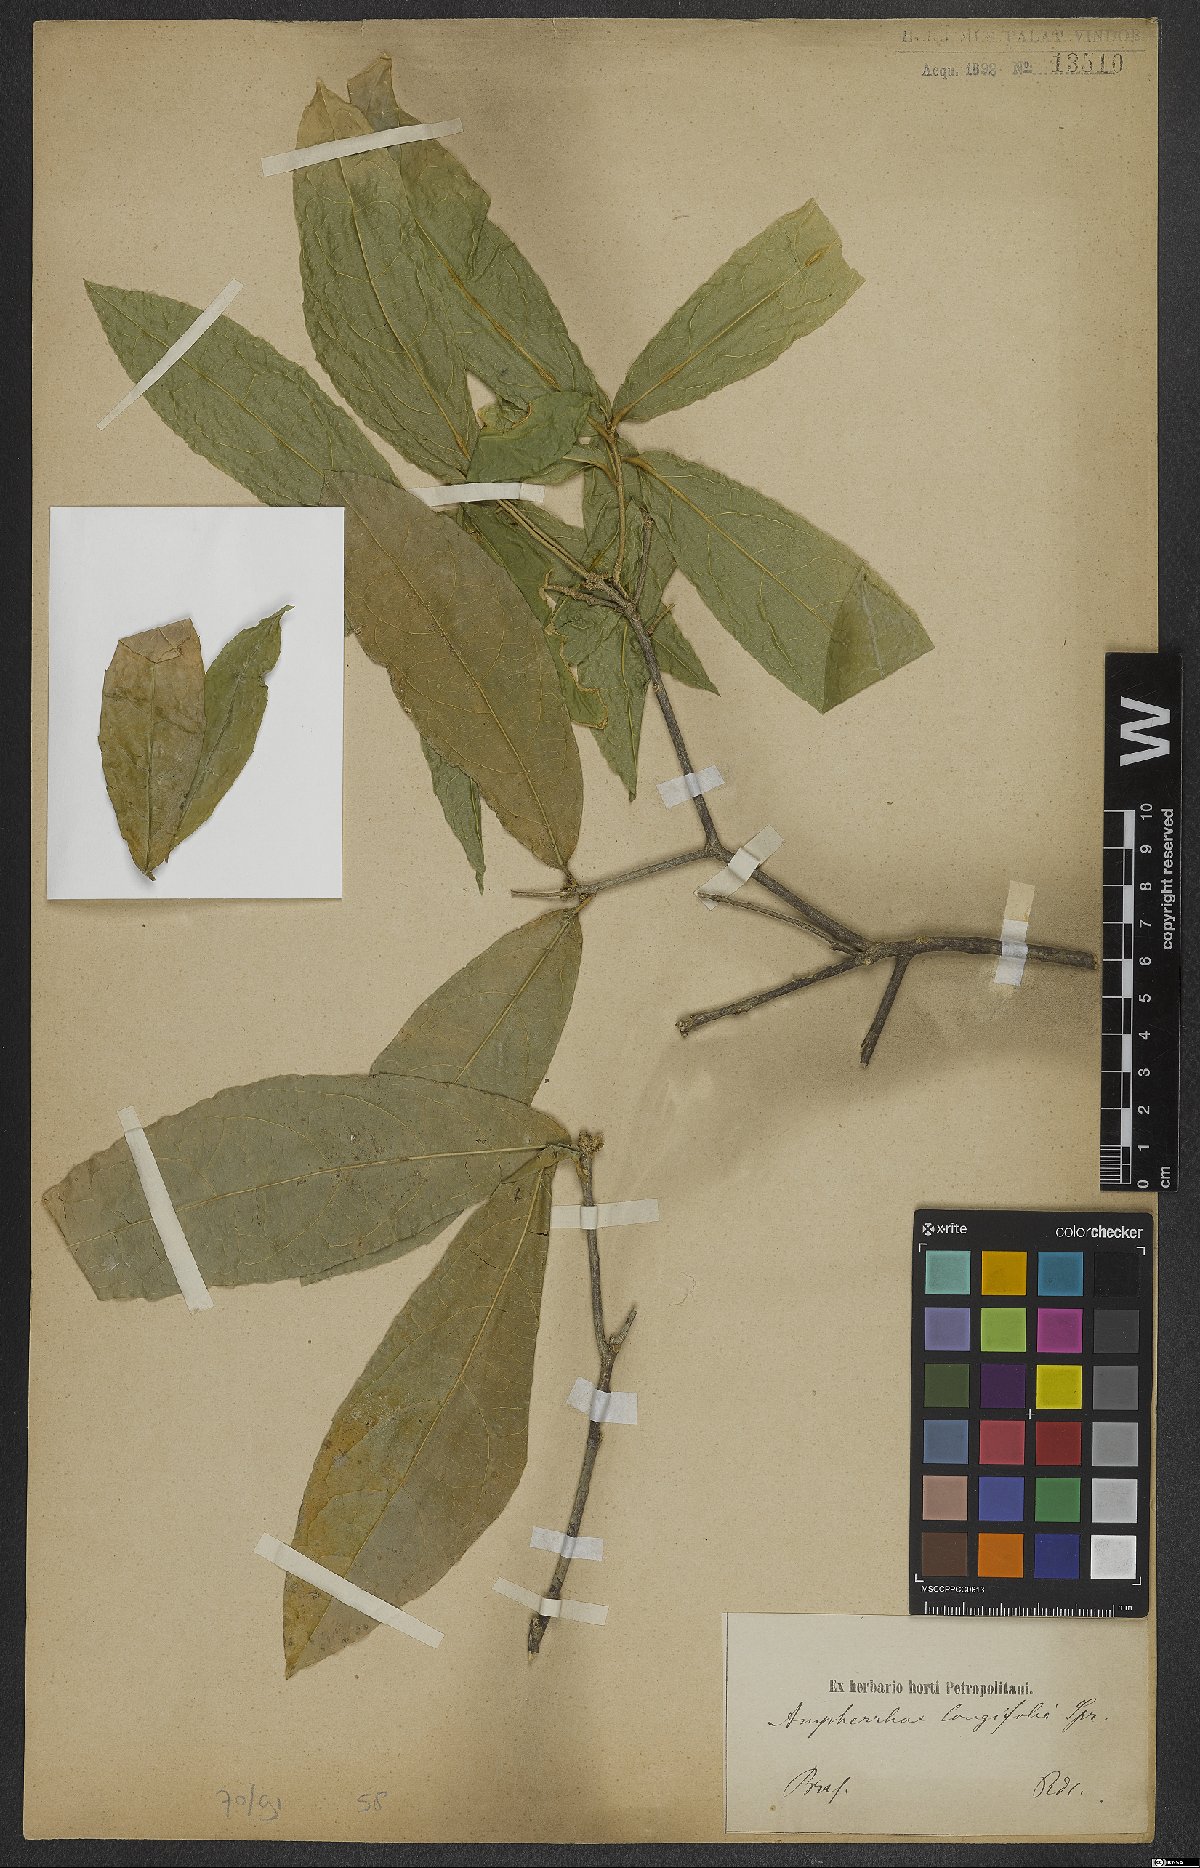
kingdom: Plantae
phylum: Tracheophyta
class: Magnoliopsida
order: Malpighiales
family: Violaceae
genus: Amphirrhox
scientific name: Amphirrhox longifolia
